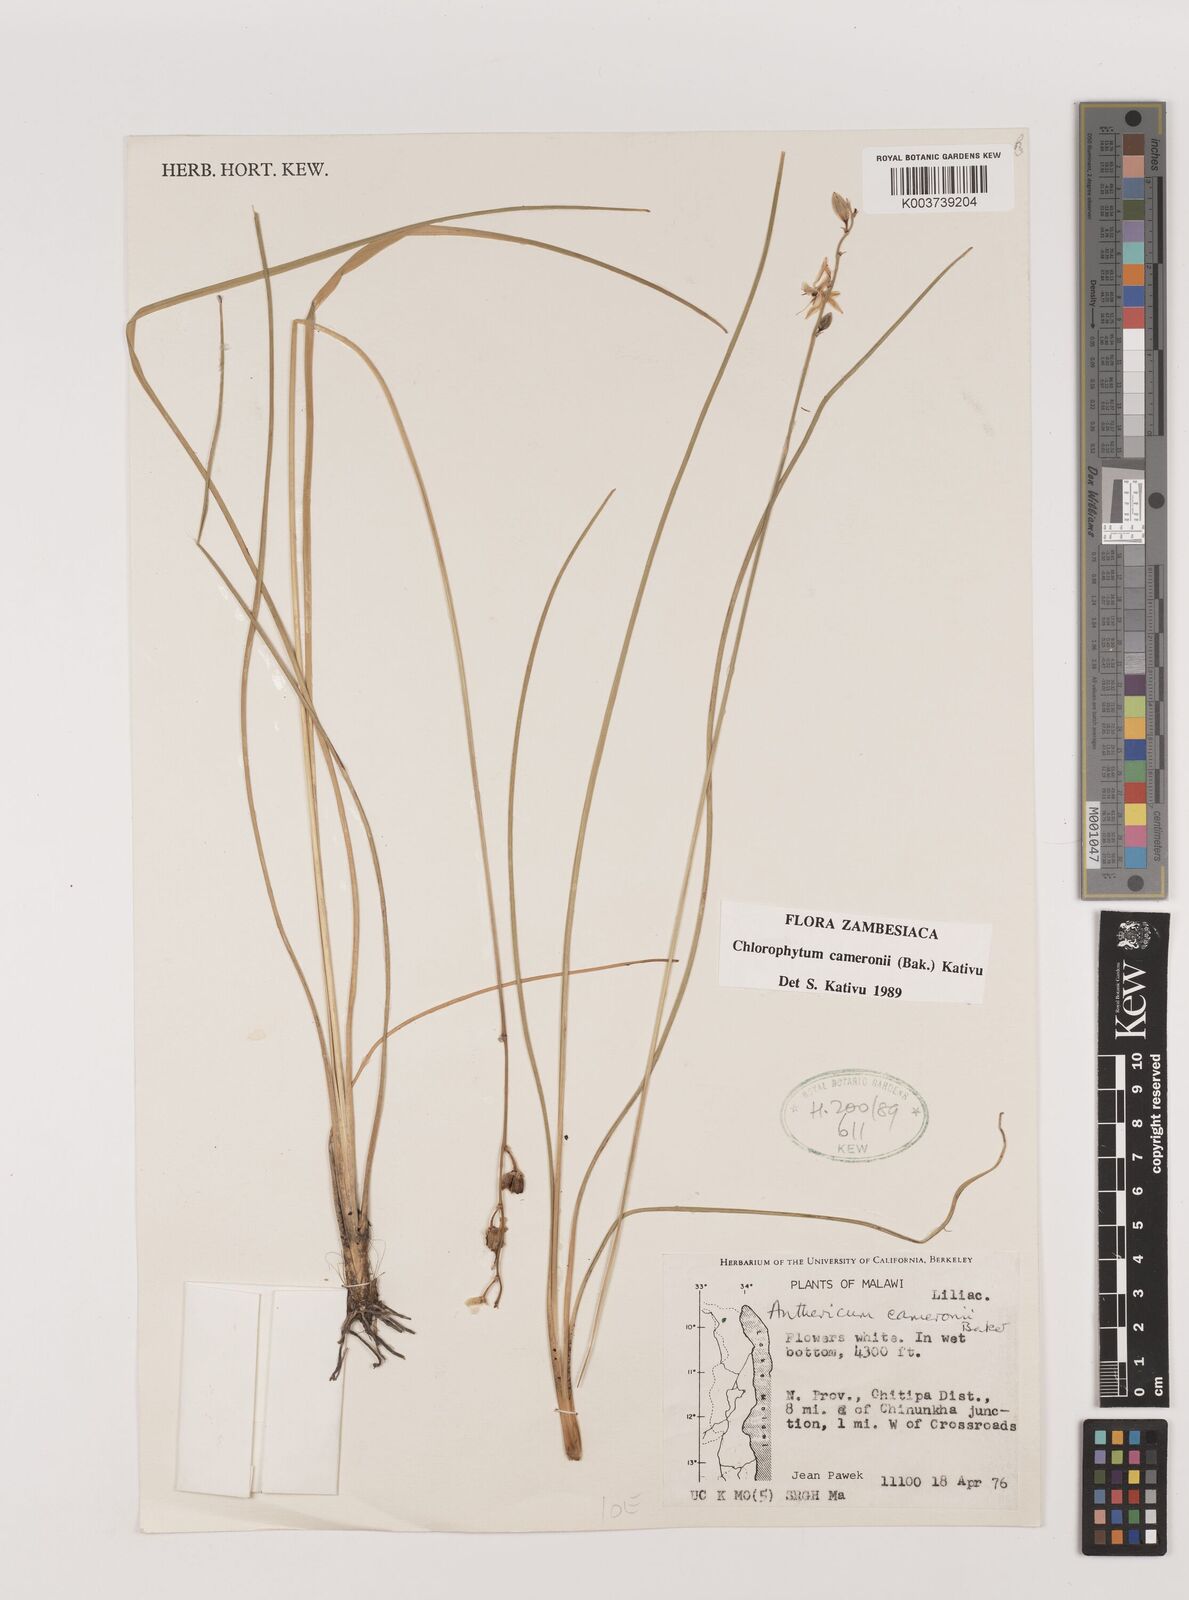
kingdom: Plantae
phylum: Tracheophyta
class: Liliopsida
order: Asparagales
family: Asparagaceae
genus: Chlorophytum
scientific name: Chlorophytum cameronii
